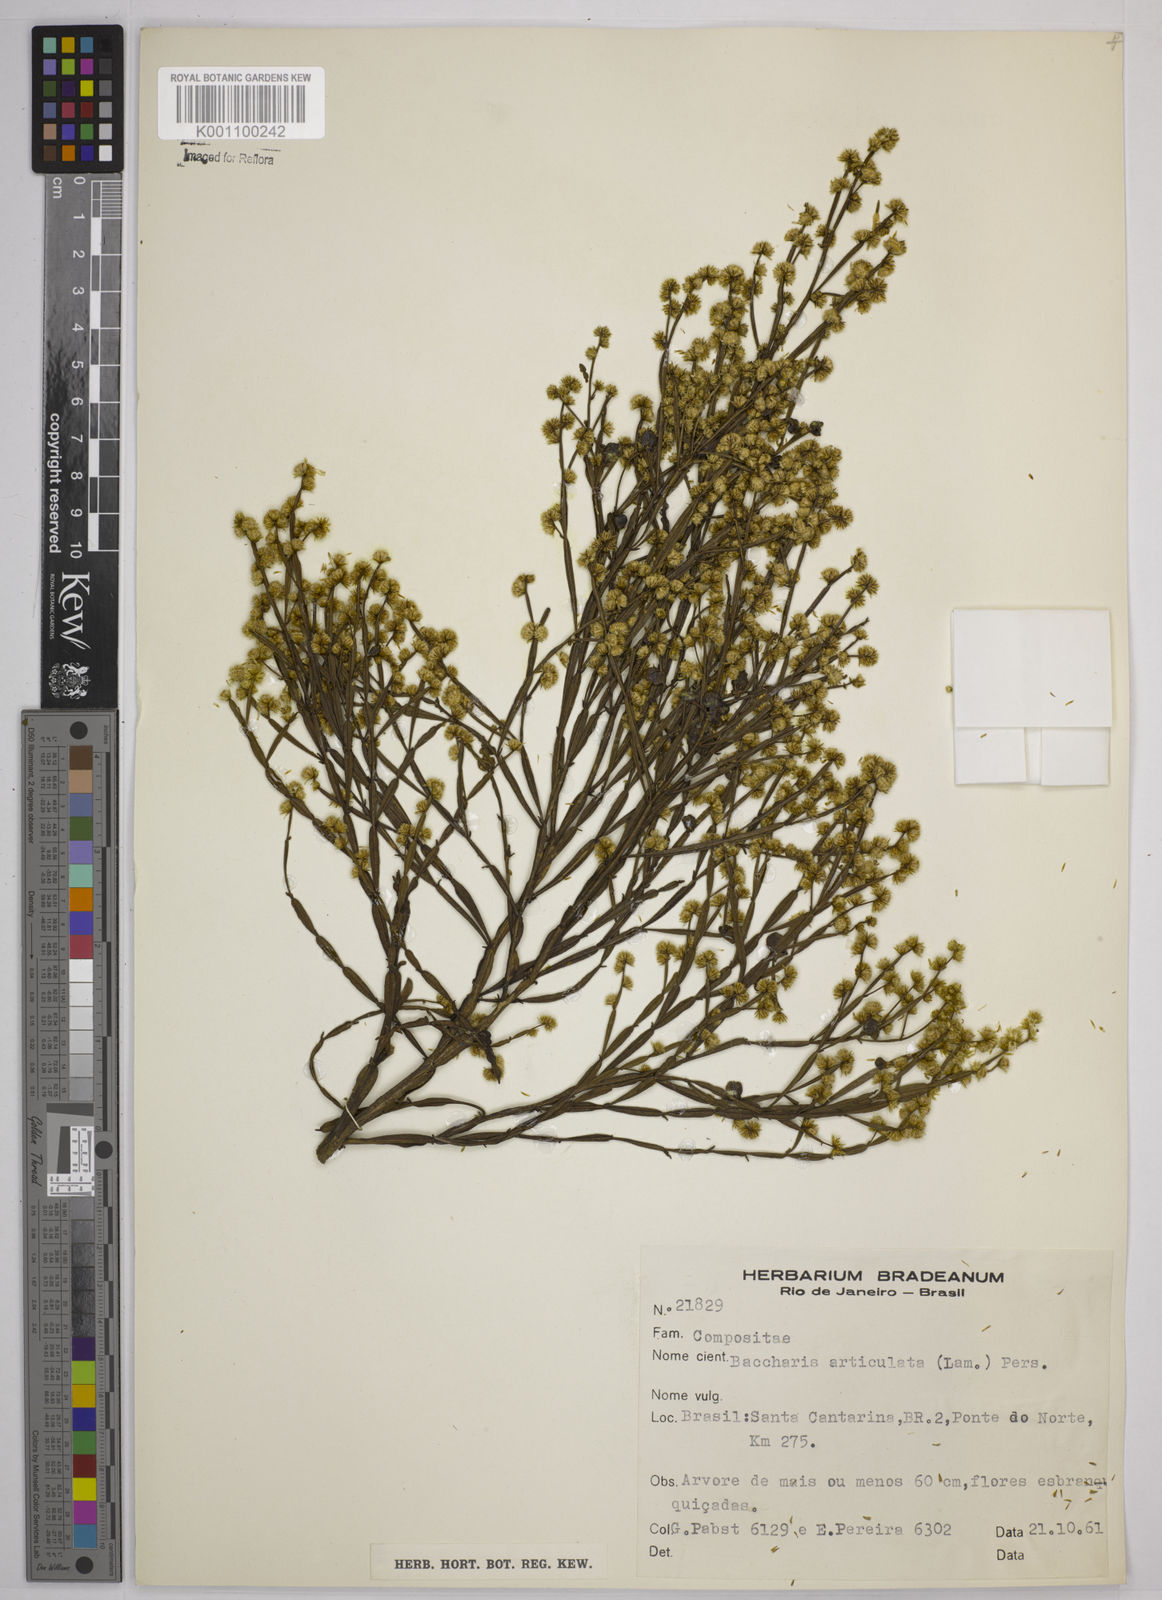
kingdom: Plantae
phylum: Tracheophyta
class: Magnoliopsida
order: Asterales
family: Asteraceae
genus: Baccharis
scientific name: Baccharis
